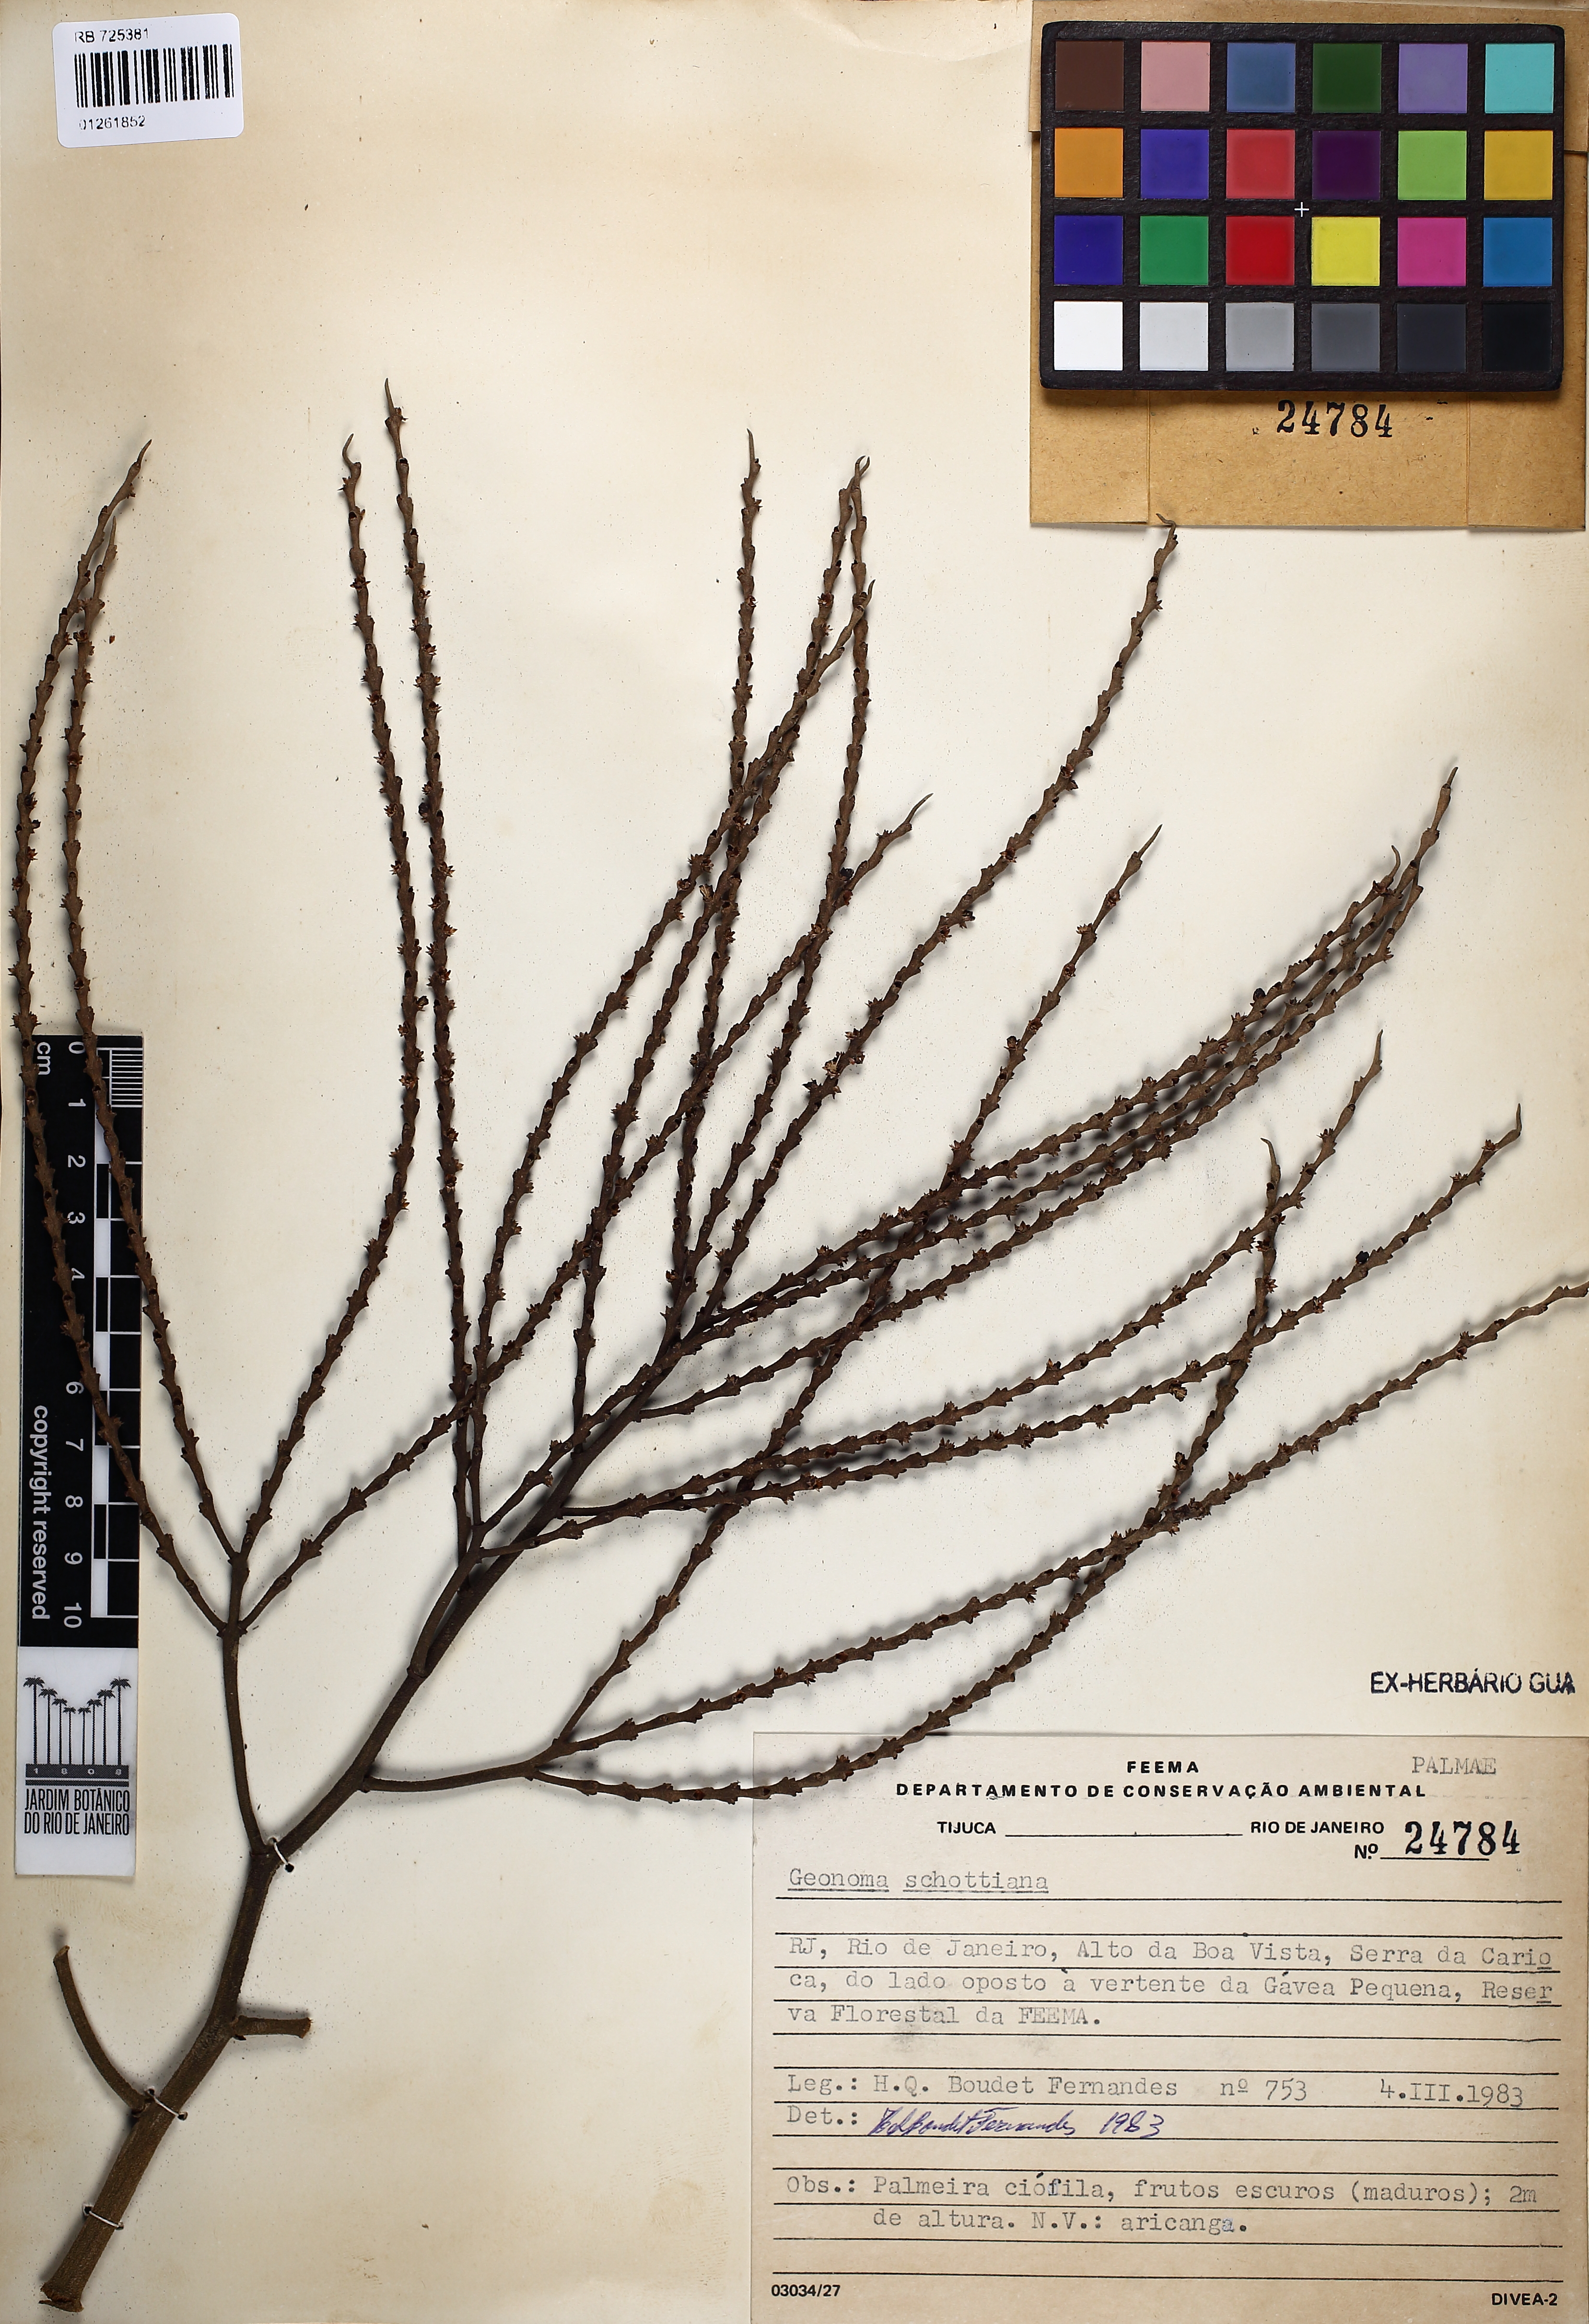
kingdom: Plantae
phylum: Tracheophyta
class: Liliopsida
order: Arecales
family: Arecaceae
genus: Geonoma
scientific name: Geonoma schottiana
